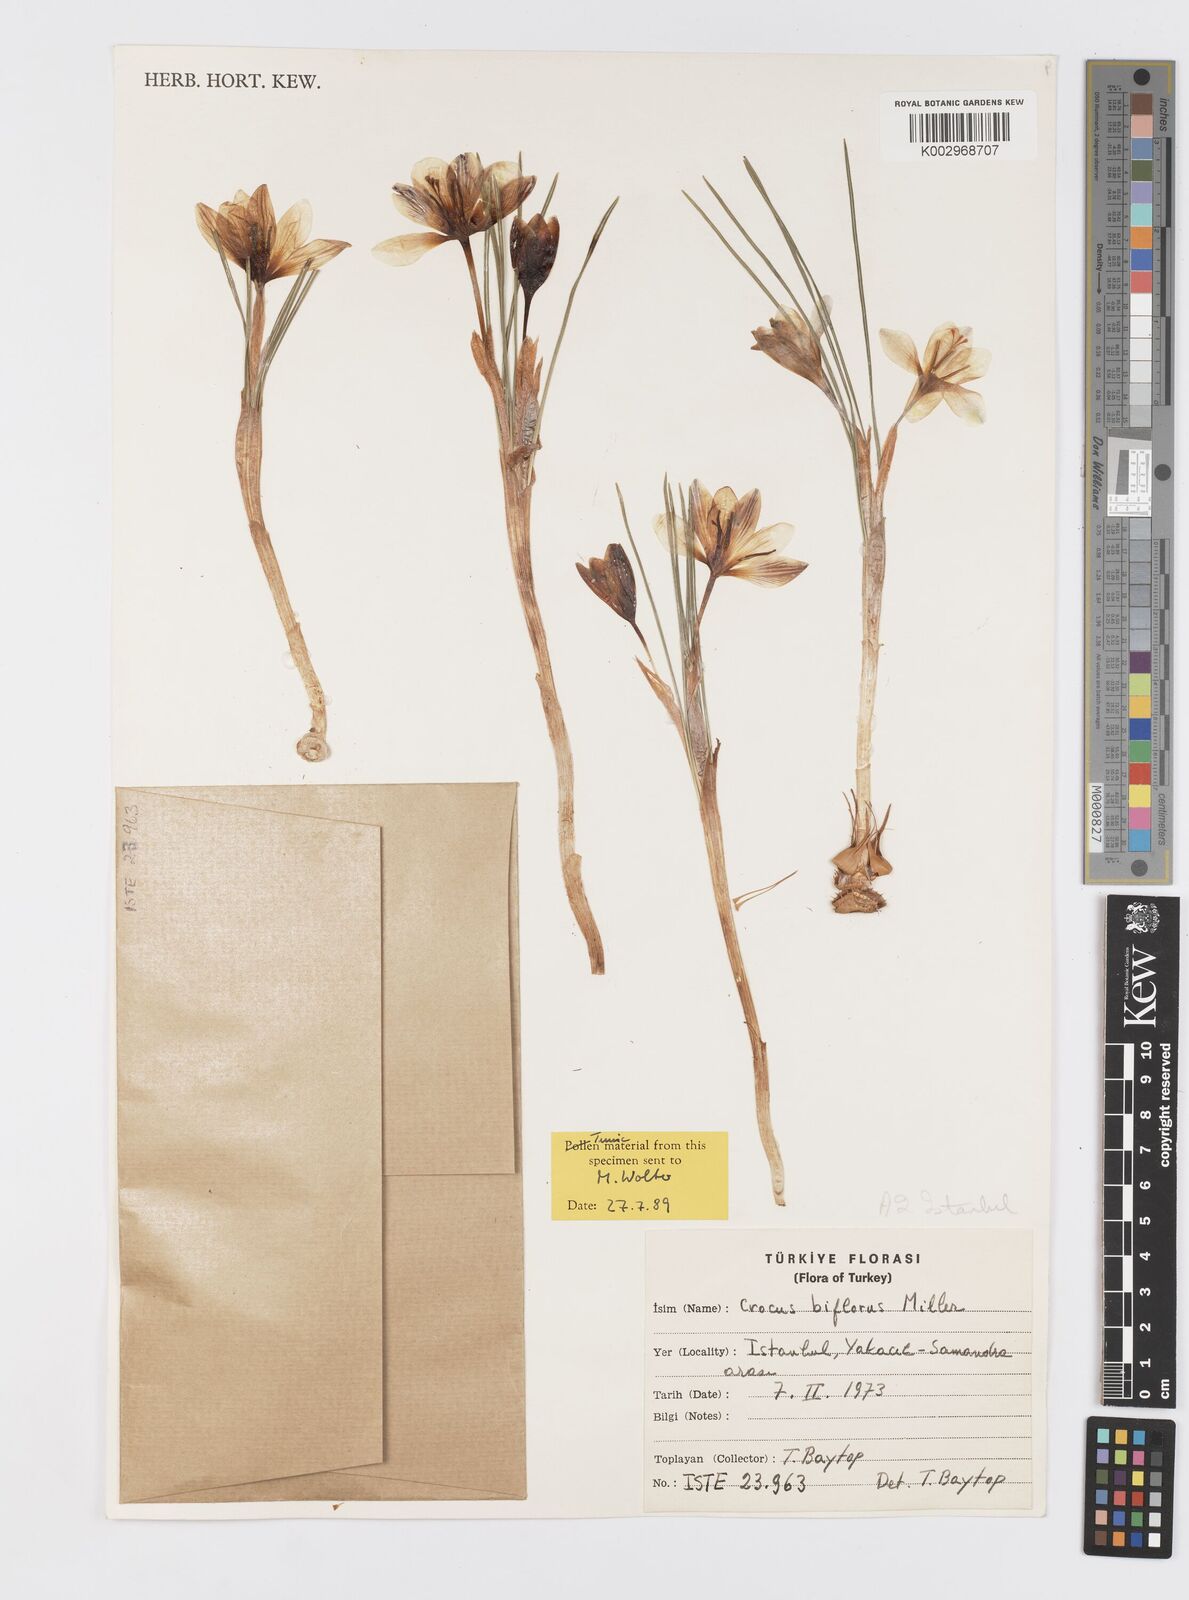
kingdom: Plantae
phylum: Tracheophyta
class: Liliopsida
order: Asparagales
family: Iridaceae
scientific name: Iridaceae
